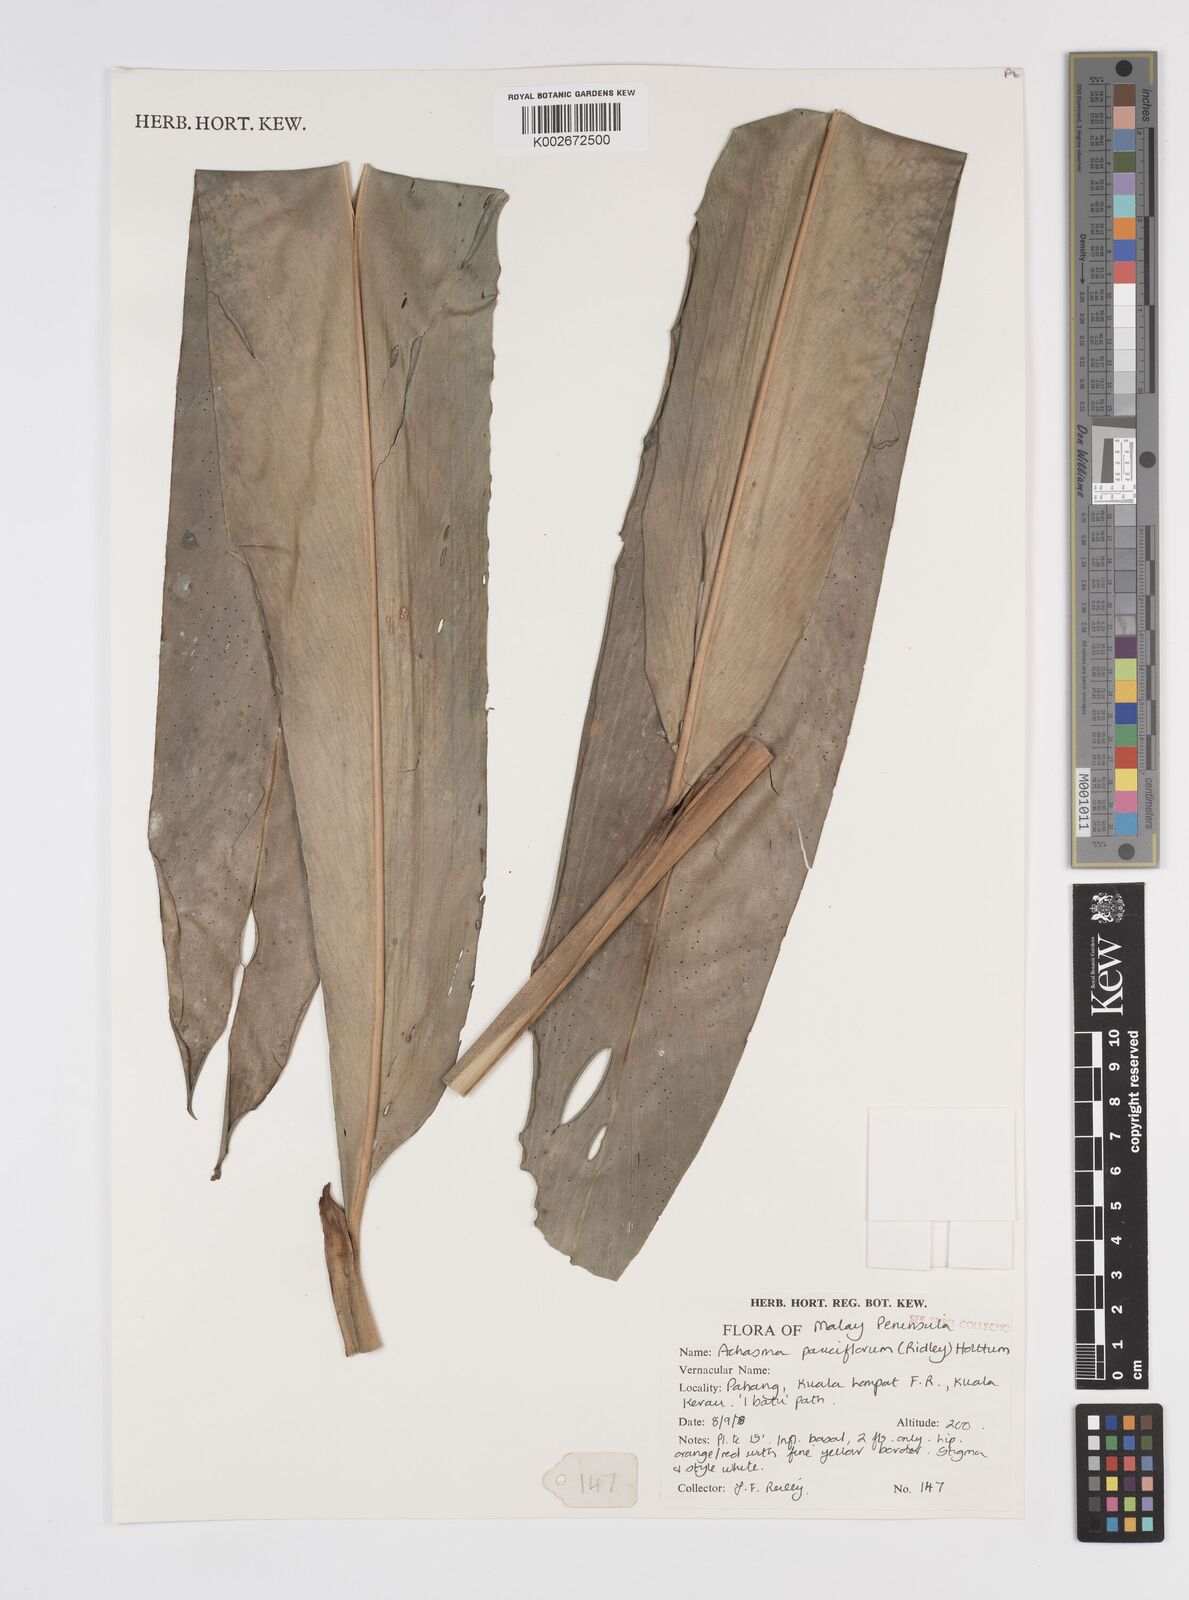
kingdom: Plantae
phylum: Tracheophyta
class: Liliopsida
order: Zingiberales
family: Zingiberaceae
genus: Etlingera
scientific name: Etlingera pauciflora
